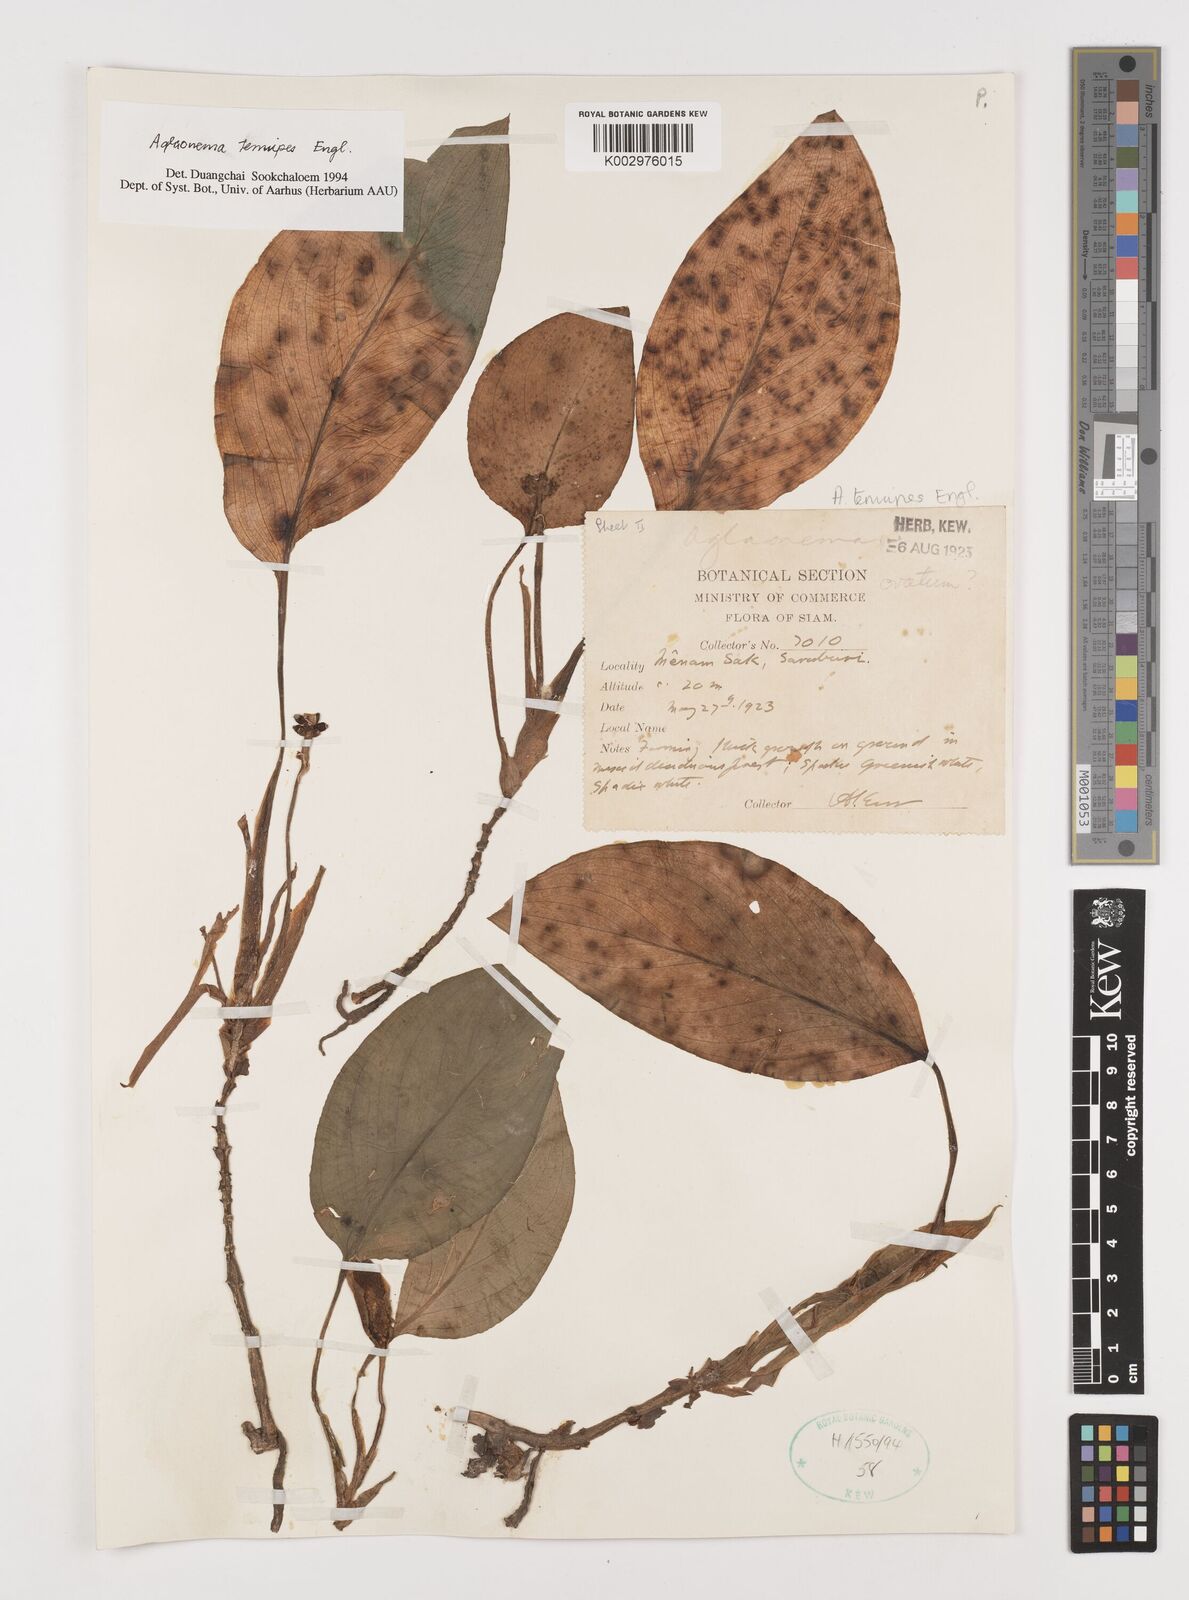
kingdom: Plantae
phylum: Tracheophyta
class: Liliopsida
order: Alismatales
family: Araceae
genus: Aglaonema
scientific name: Aglaonema simplex
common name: Malayan-sword
